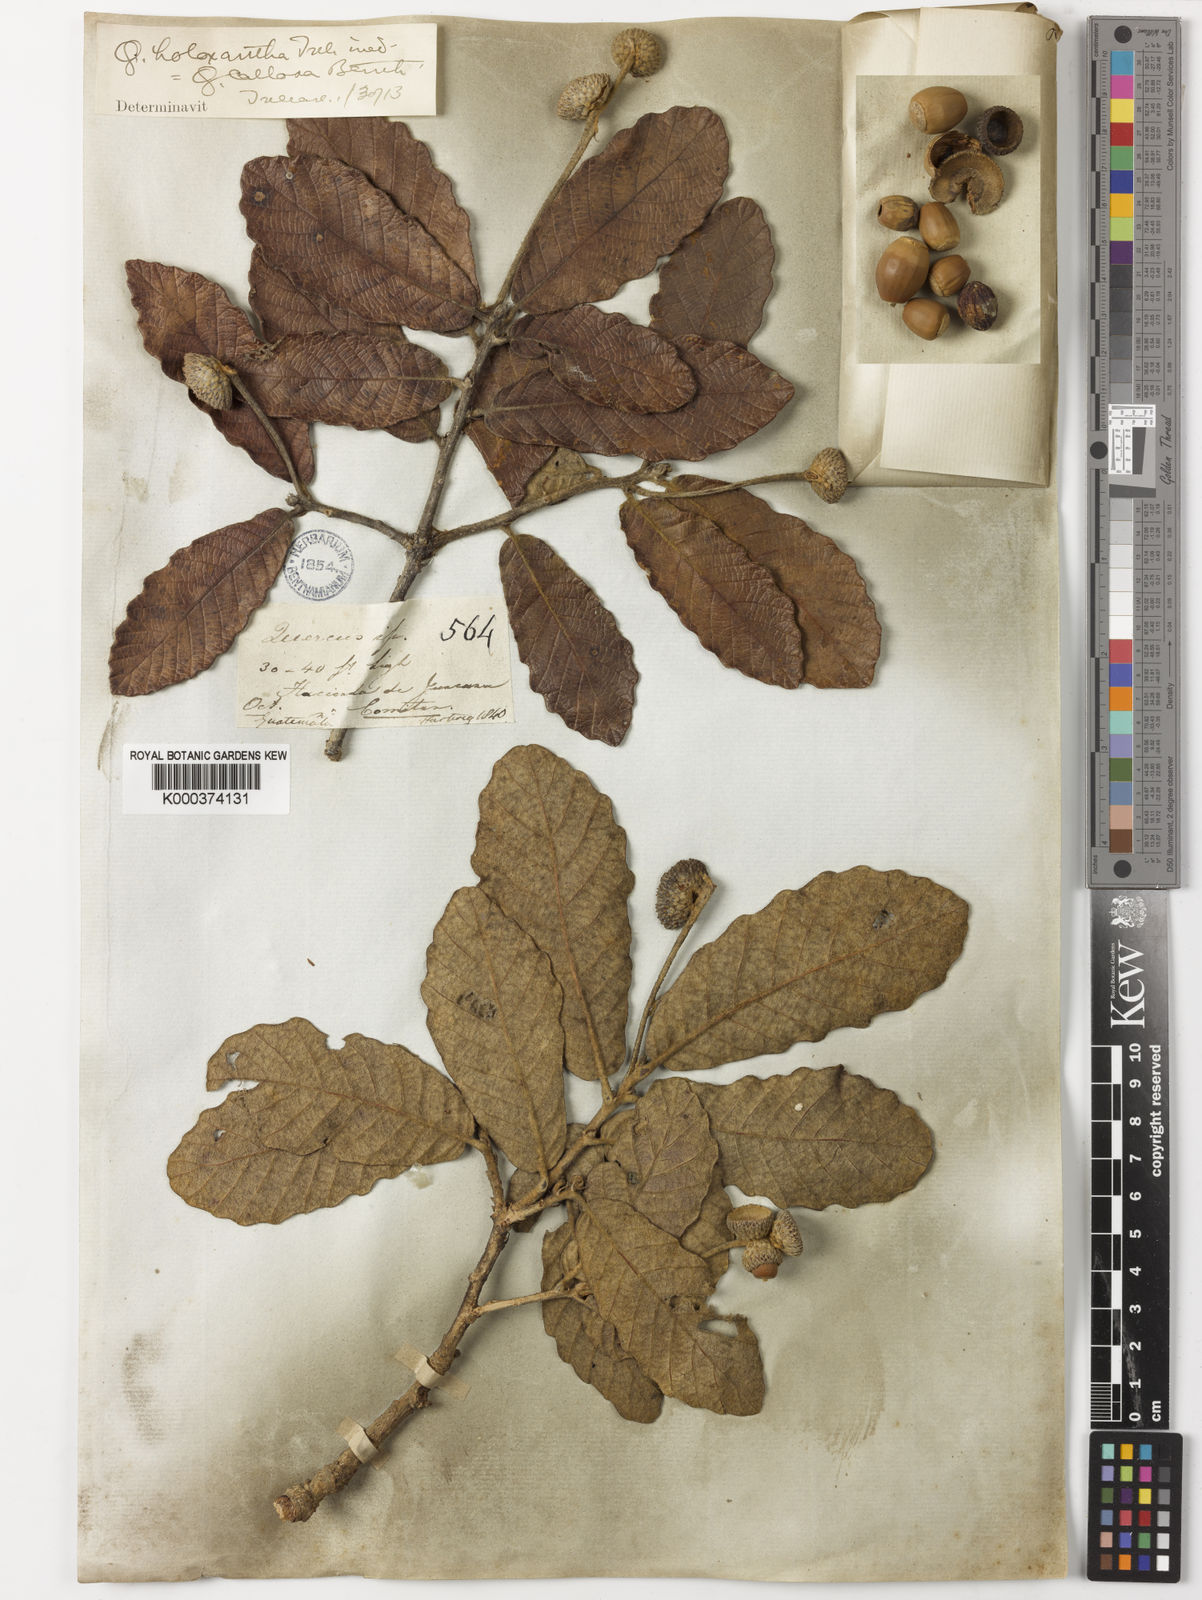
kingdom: Plantae
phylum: Tracheophyta
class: Magnoliopsida
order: Fagales
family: Fagaceae
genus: Quercus
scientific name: Quercus peduncularis
